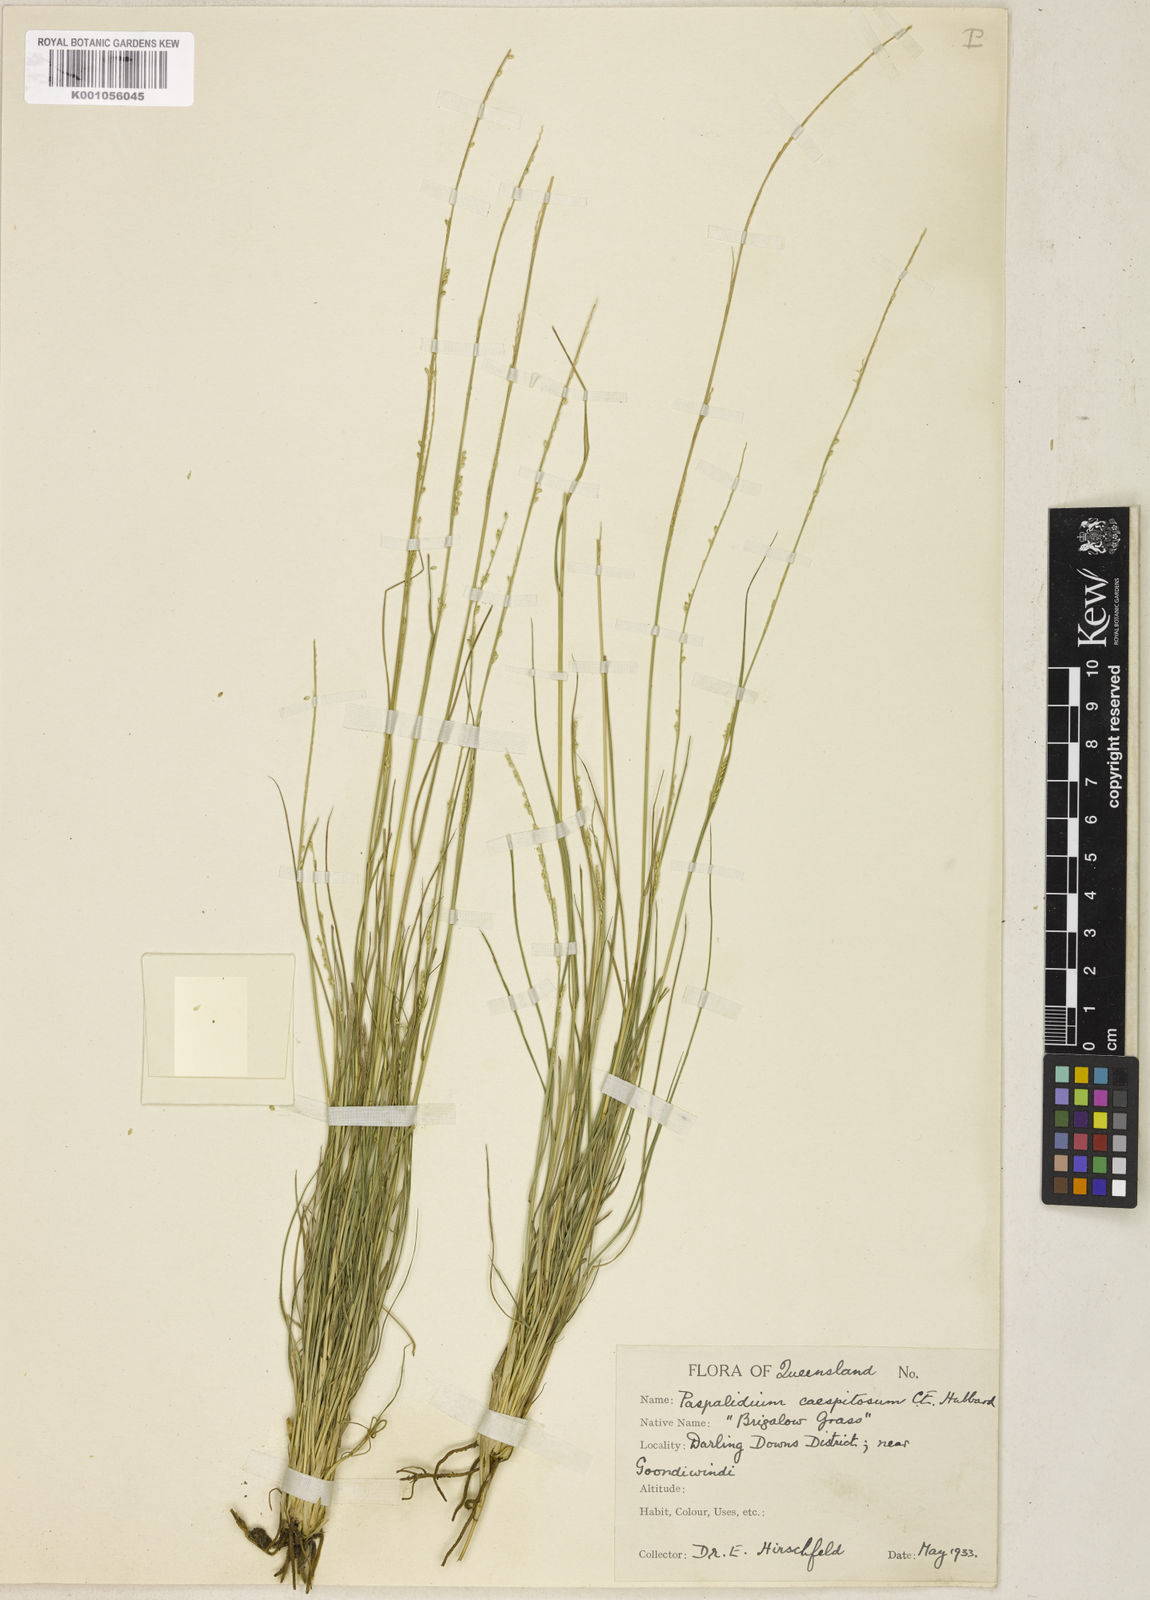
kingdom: Plantae
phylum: Tracheophyta
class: Liliopsida
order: Poales
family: Poaceae
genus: Setaria
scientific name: Setaria brigalow
